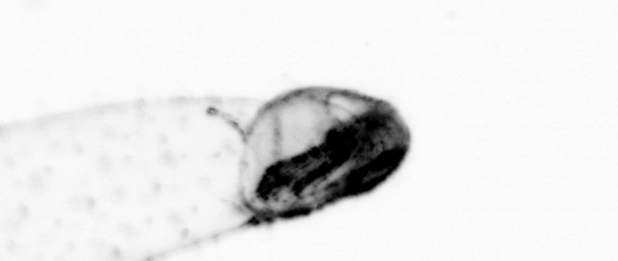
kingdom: Animalia
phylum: Chaetognatha
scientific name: Chaetognatha
